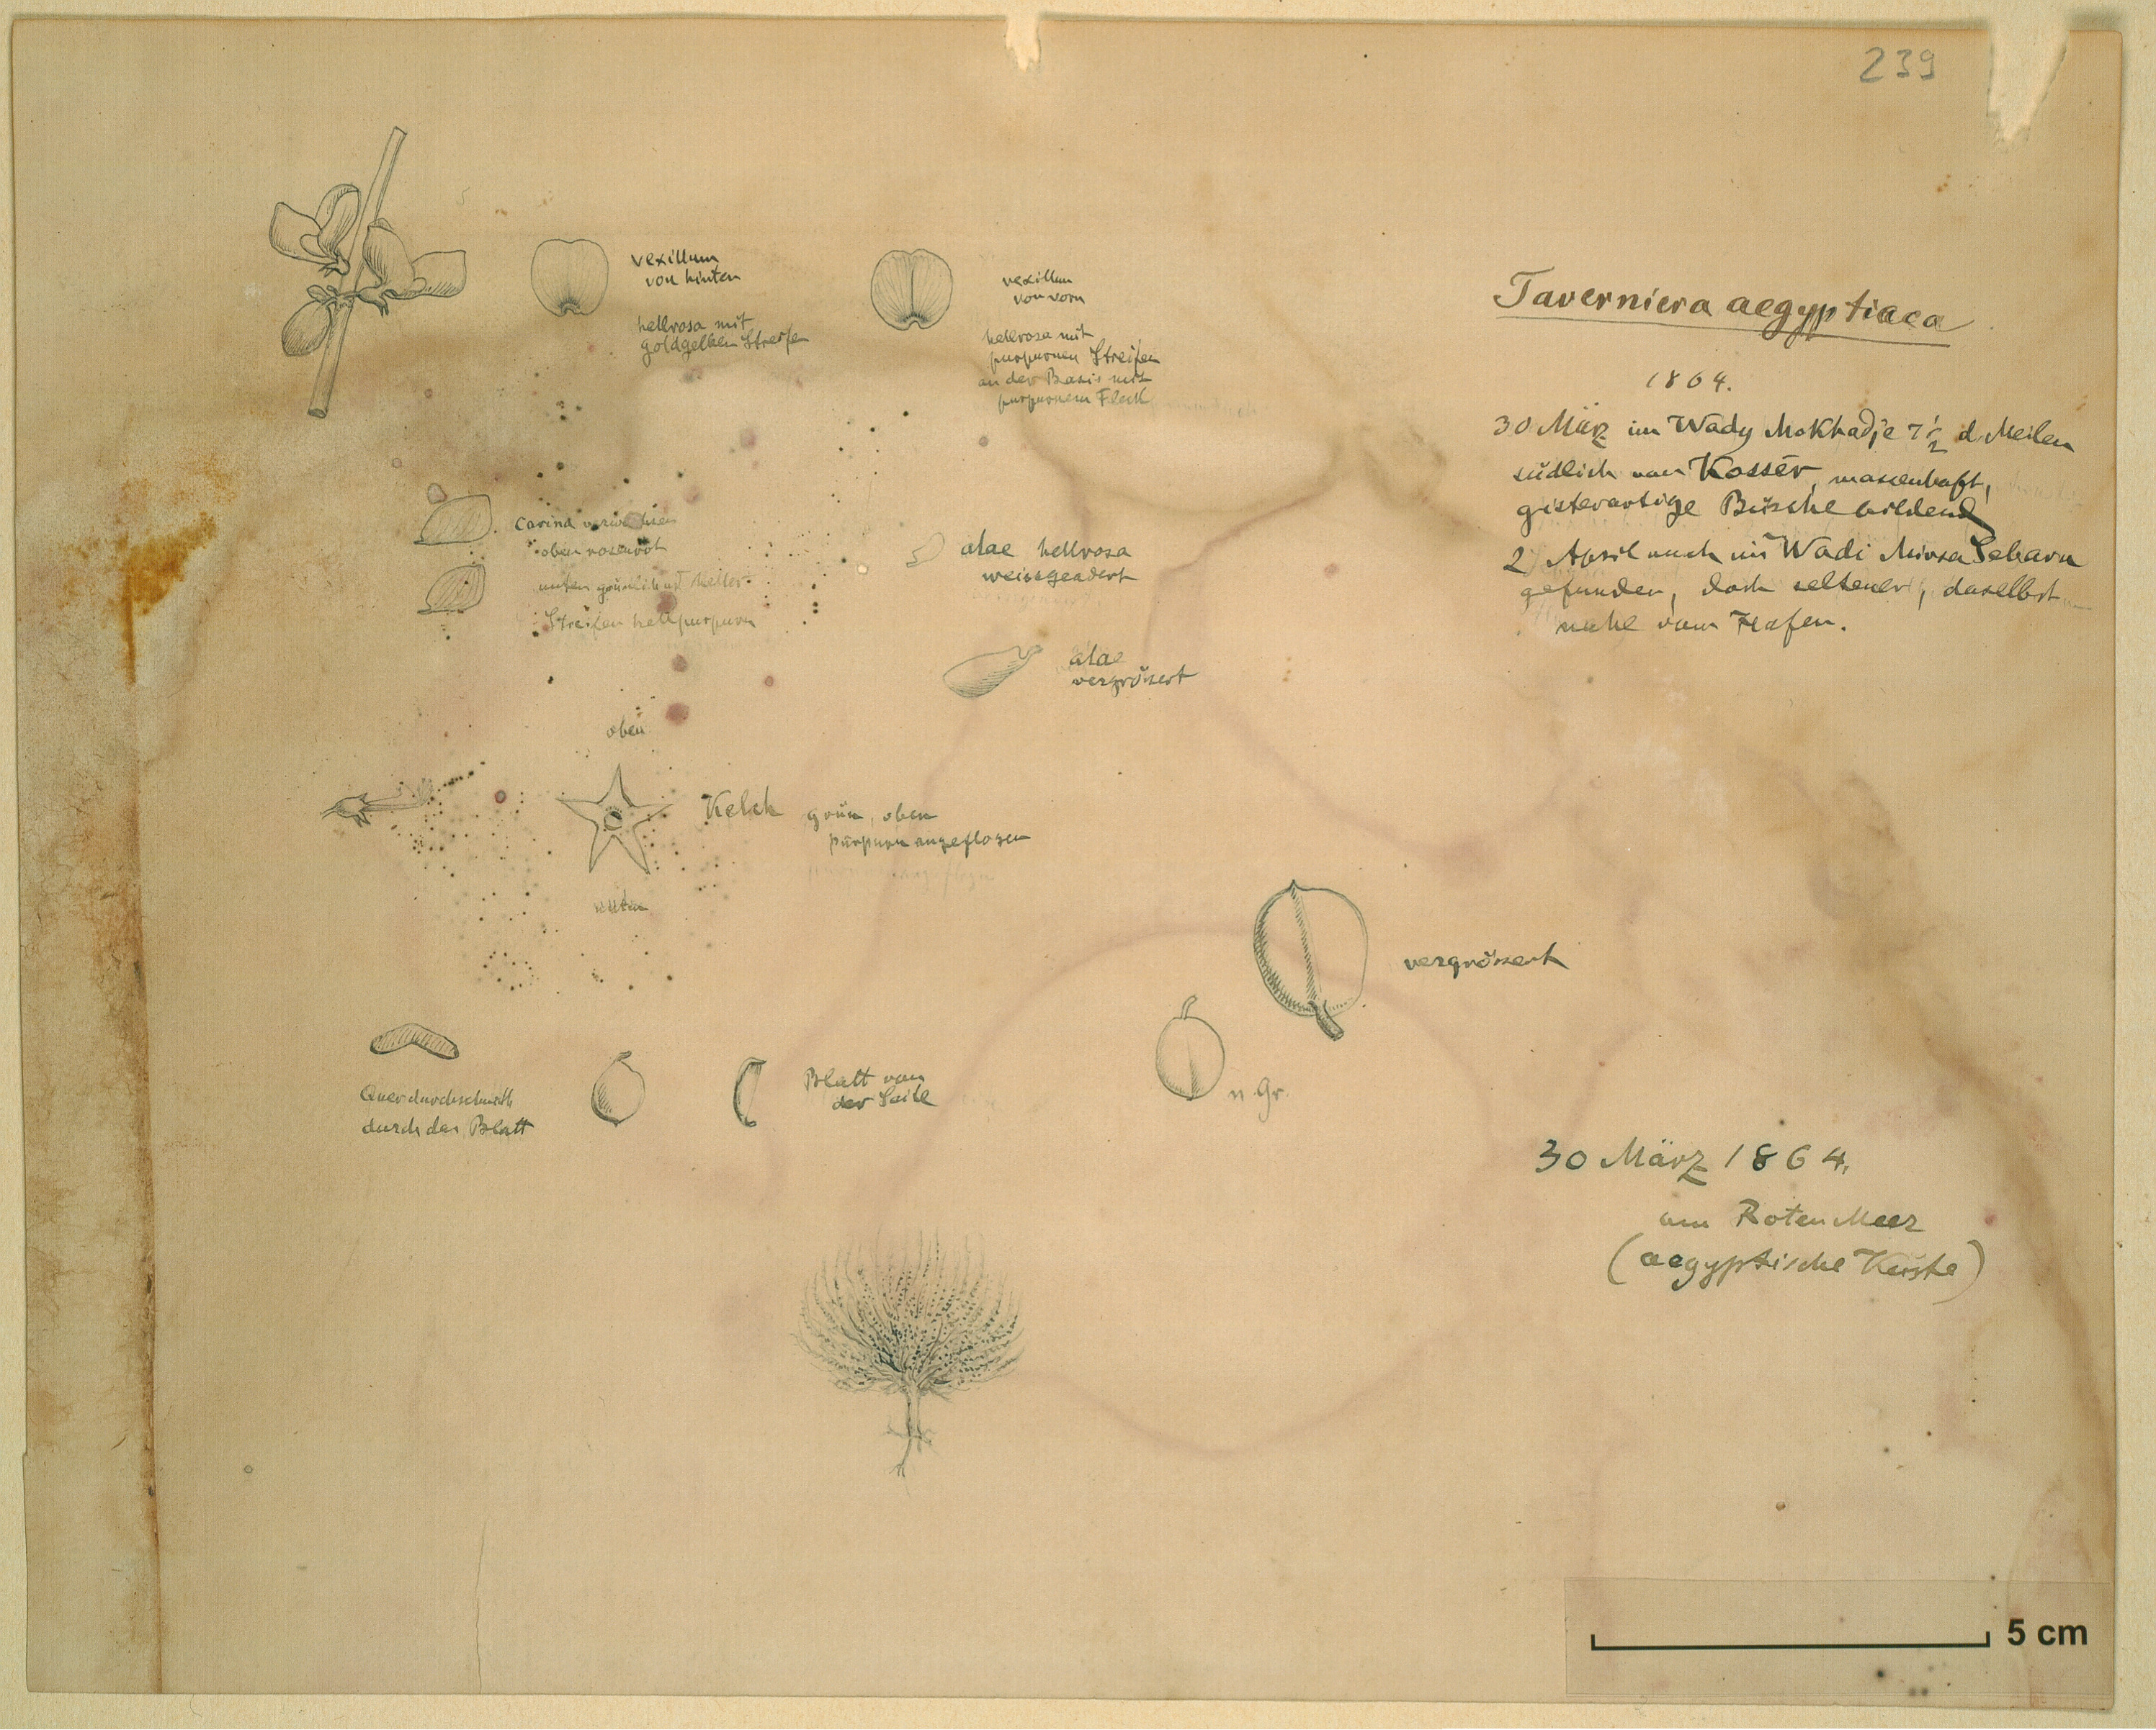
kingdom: Plantae
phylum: Tracheophyta
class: Magnoliopsida
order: Fabales
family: Fabaceae
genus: Taverniera
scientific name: Taverniera aegyptiaca
